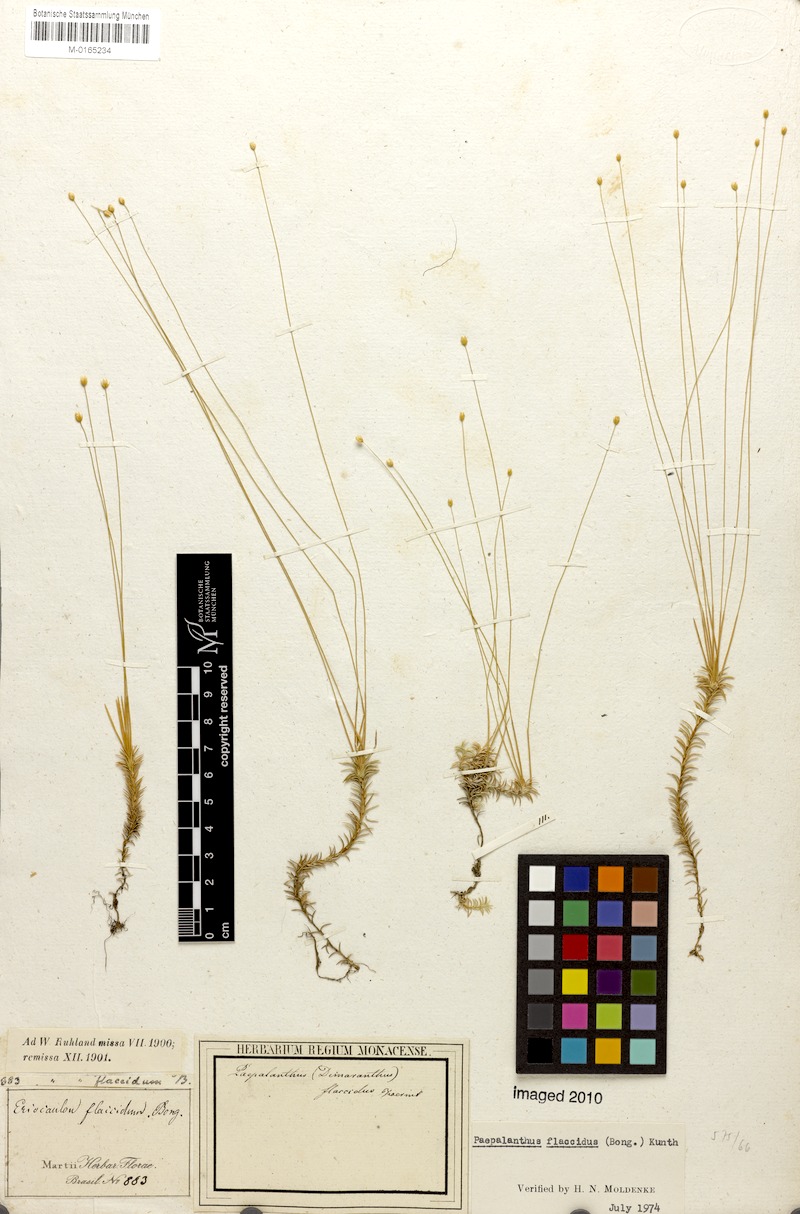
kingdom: Plantae
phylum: Tracheophyta
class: Liliopsida
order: Poales
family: Eriocaulaceae
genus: Paepalanthus
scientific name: Paepalanthus flaccidus
